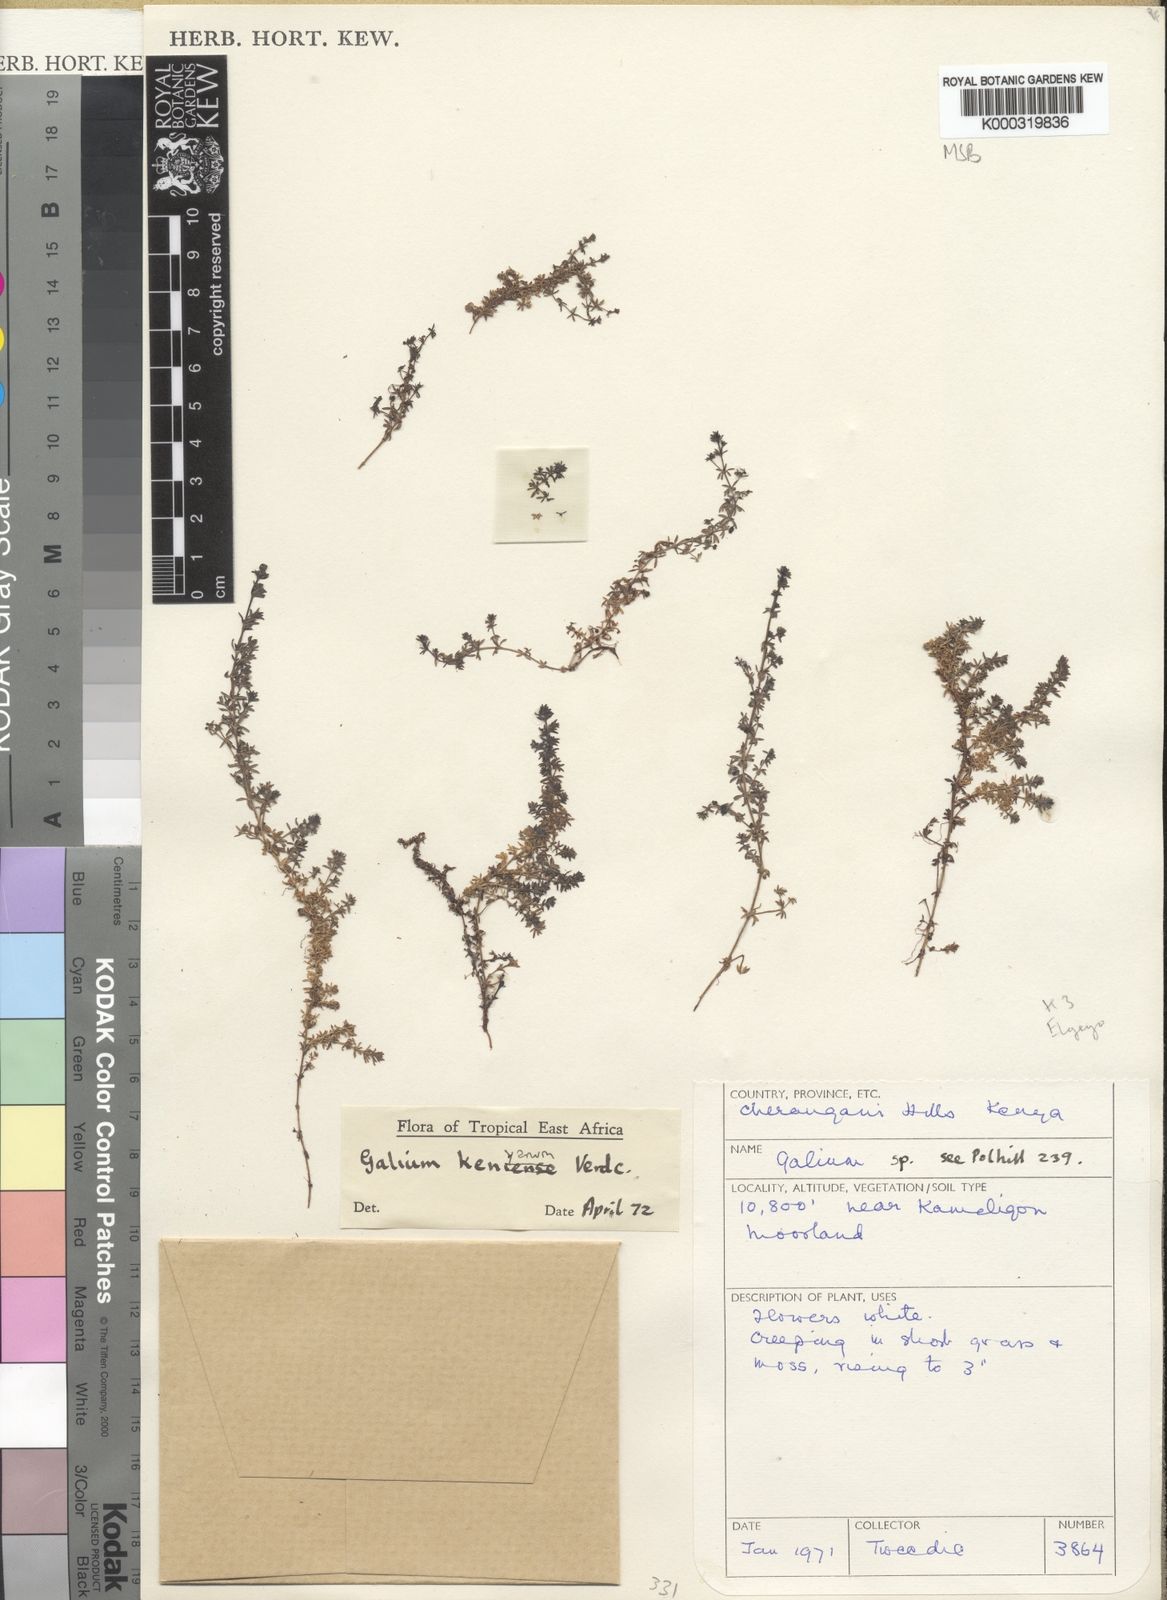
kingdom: Plantae
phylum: Tracheophyta
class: Magnoliopsida
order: Gentianales
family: Rubiaceae
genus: Galium
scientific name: Galium kenyanum
